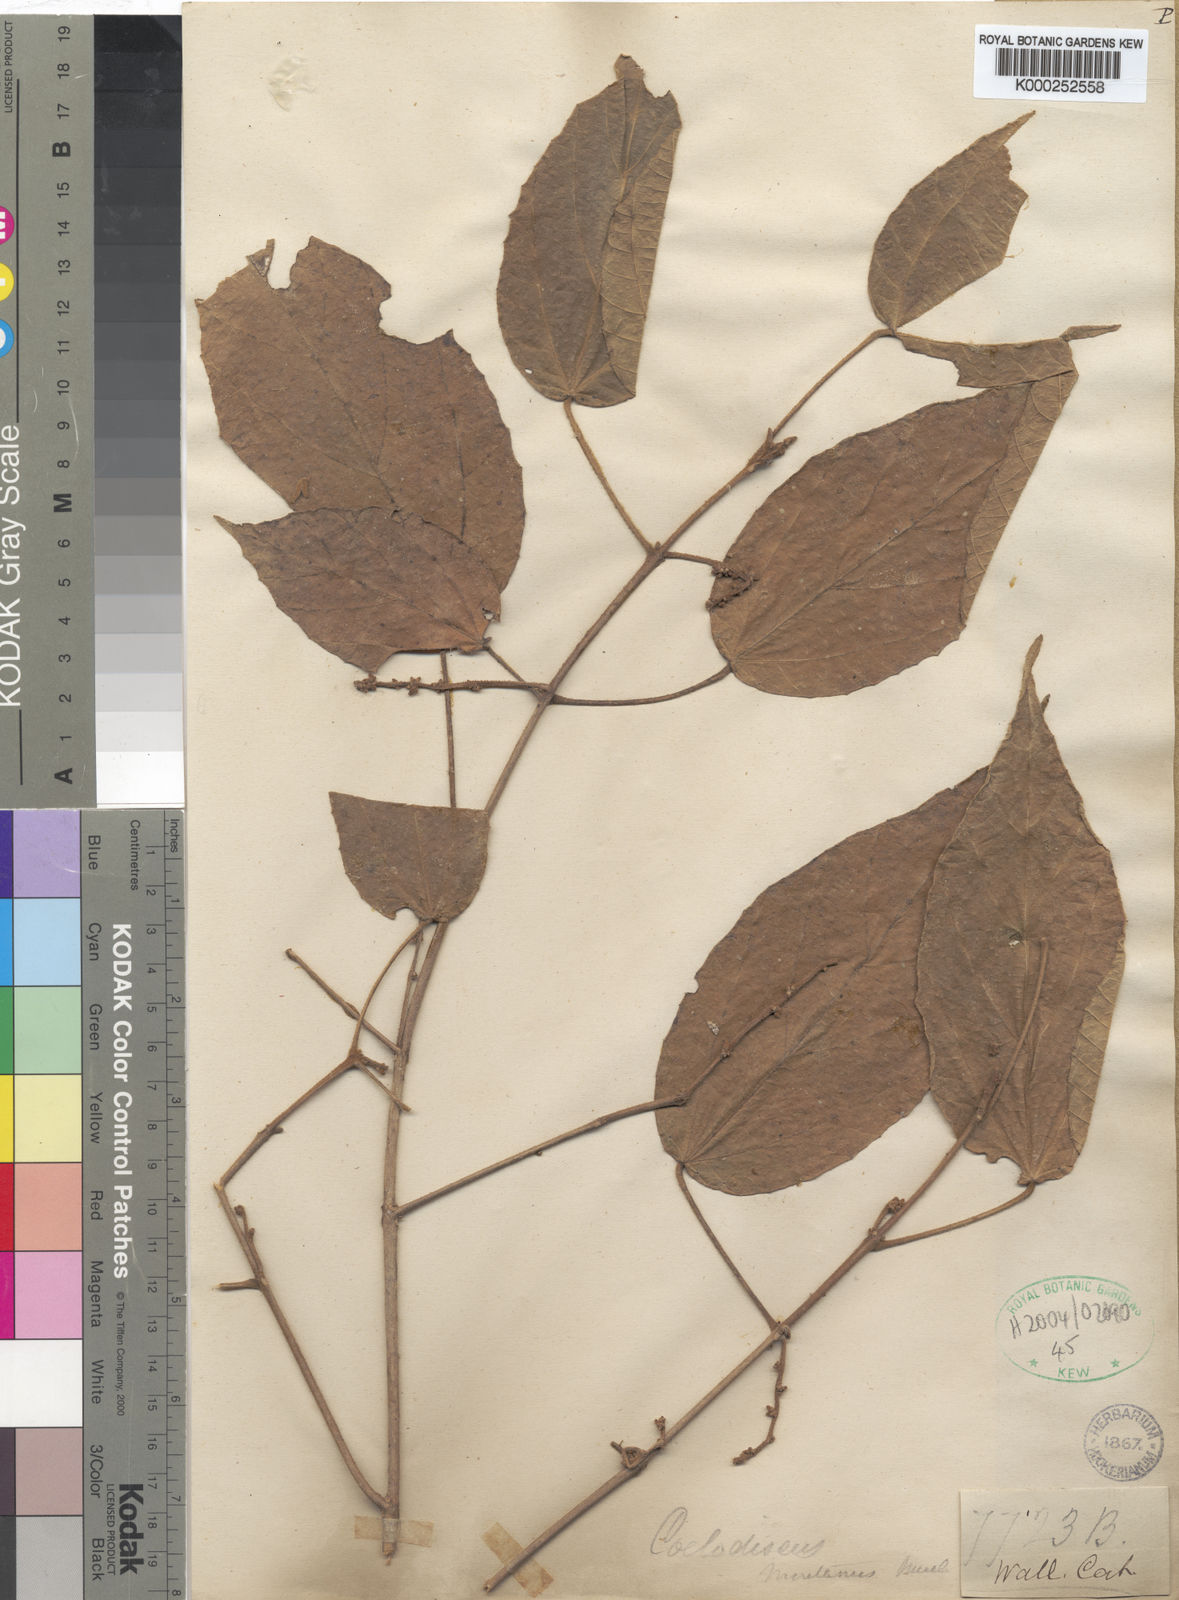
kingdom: Plantae
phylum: Tracheophyta
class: Magnoliopsida
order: Malpighiales
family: Euphorbiaceae
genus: Mallotus
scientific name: Mallotus montanus
